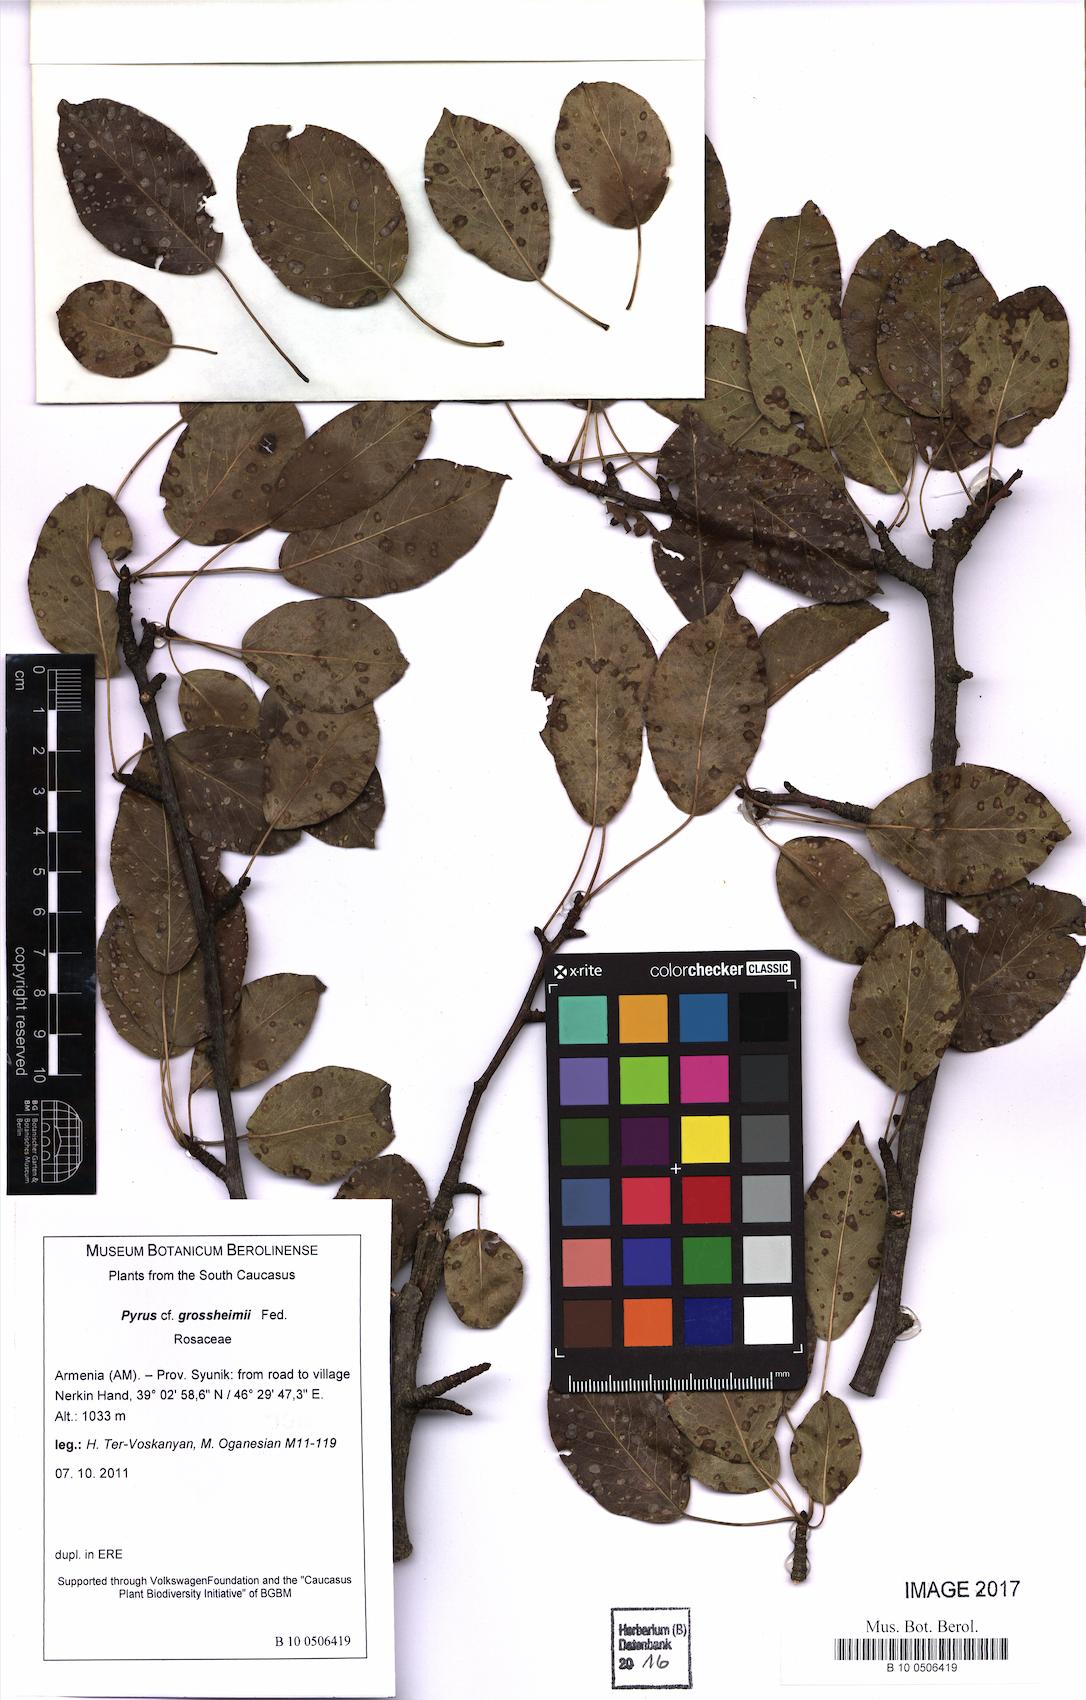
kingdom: Plantae
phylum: Tracheophyta
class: Magnoliopsida
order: Rosales
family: Rosaceae
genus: Pyrus
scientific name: Pyrus grossheimii
